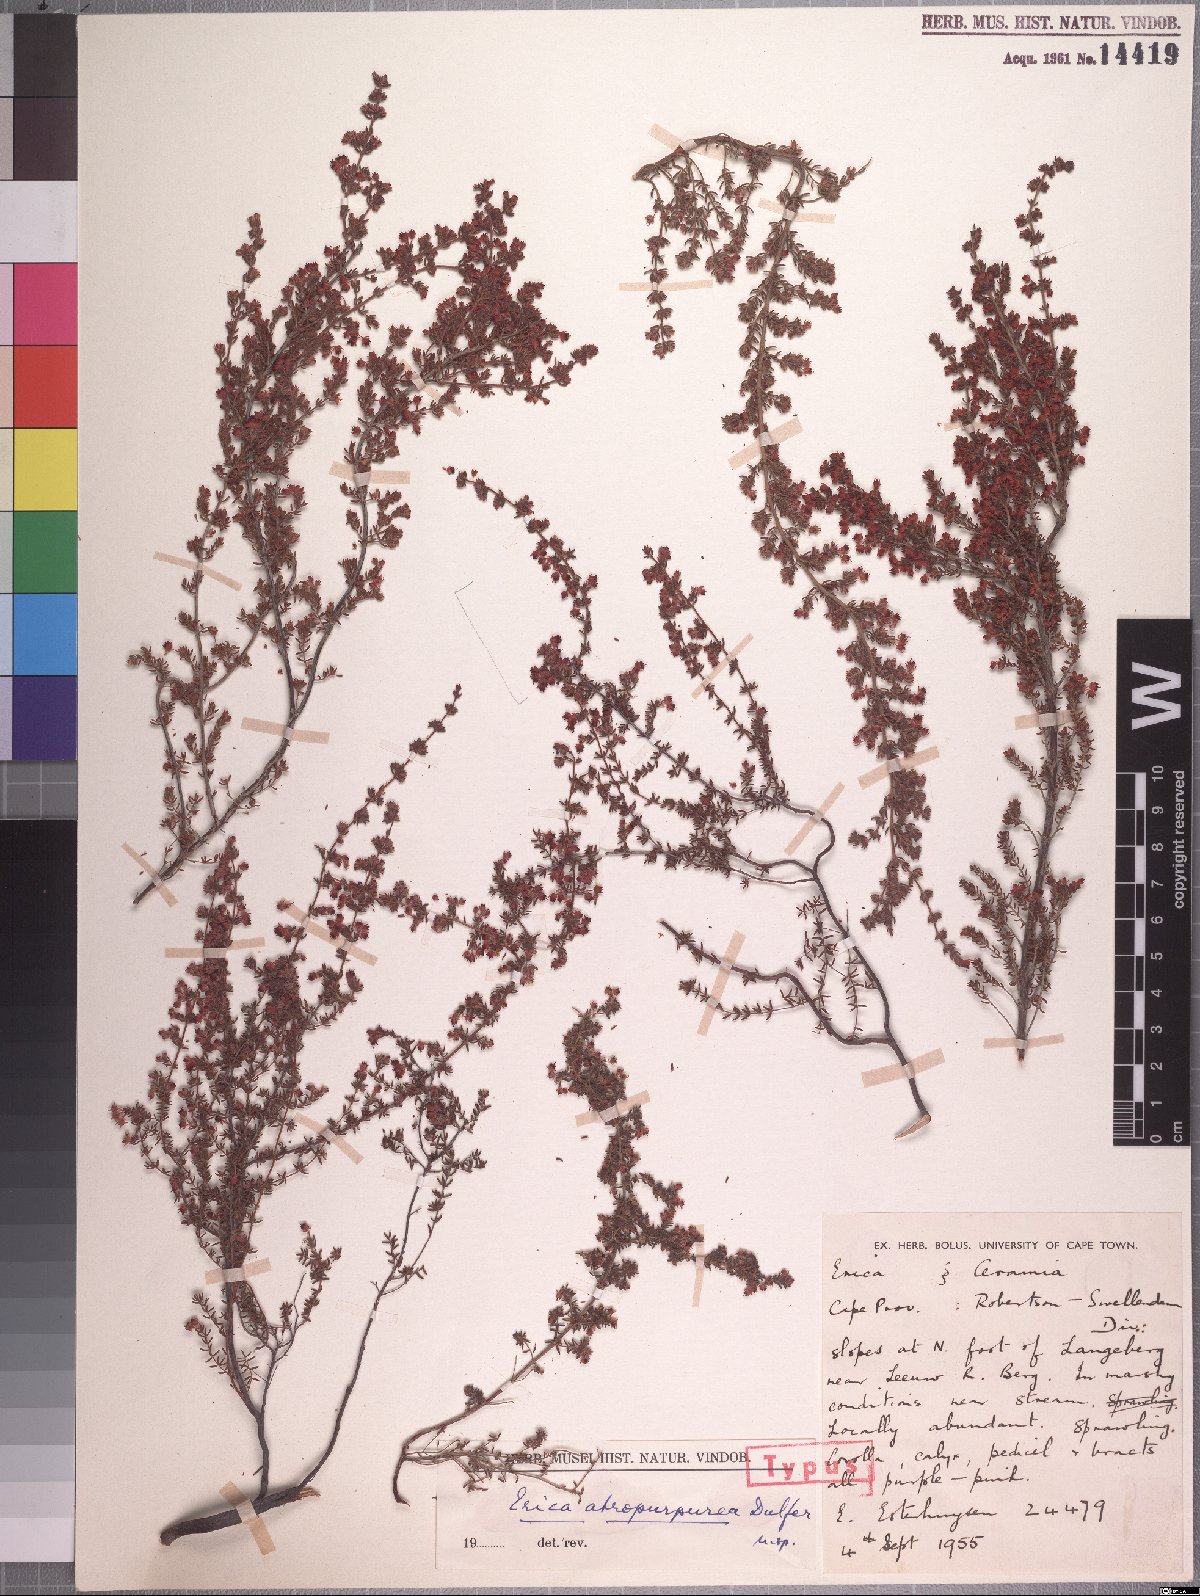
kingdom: Plantae
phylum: Tracheophyta
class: Magnoliopsida
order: Ericales
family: Ericaceae
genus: Erica
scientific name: Erica atropurpurea
